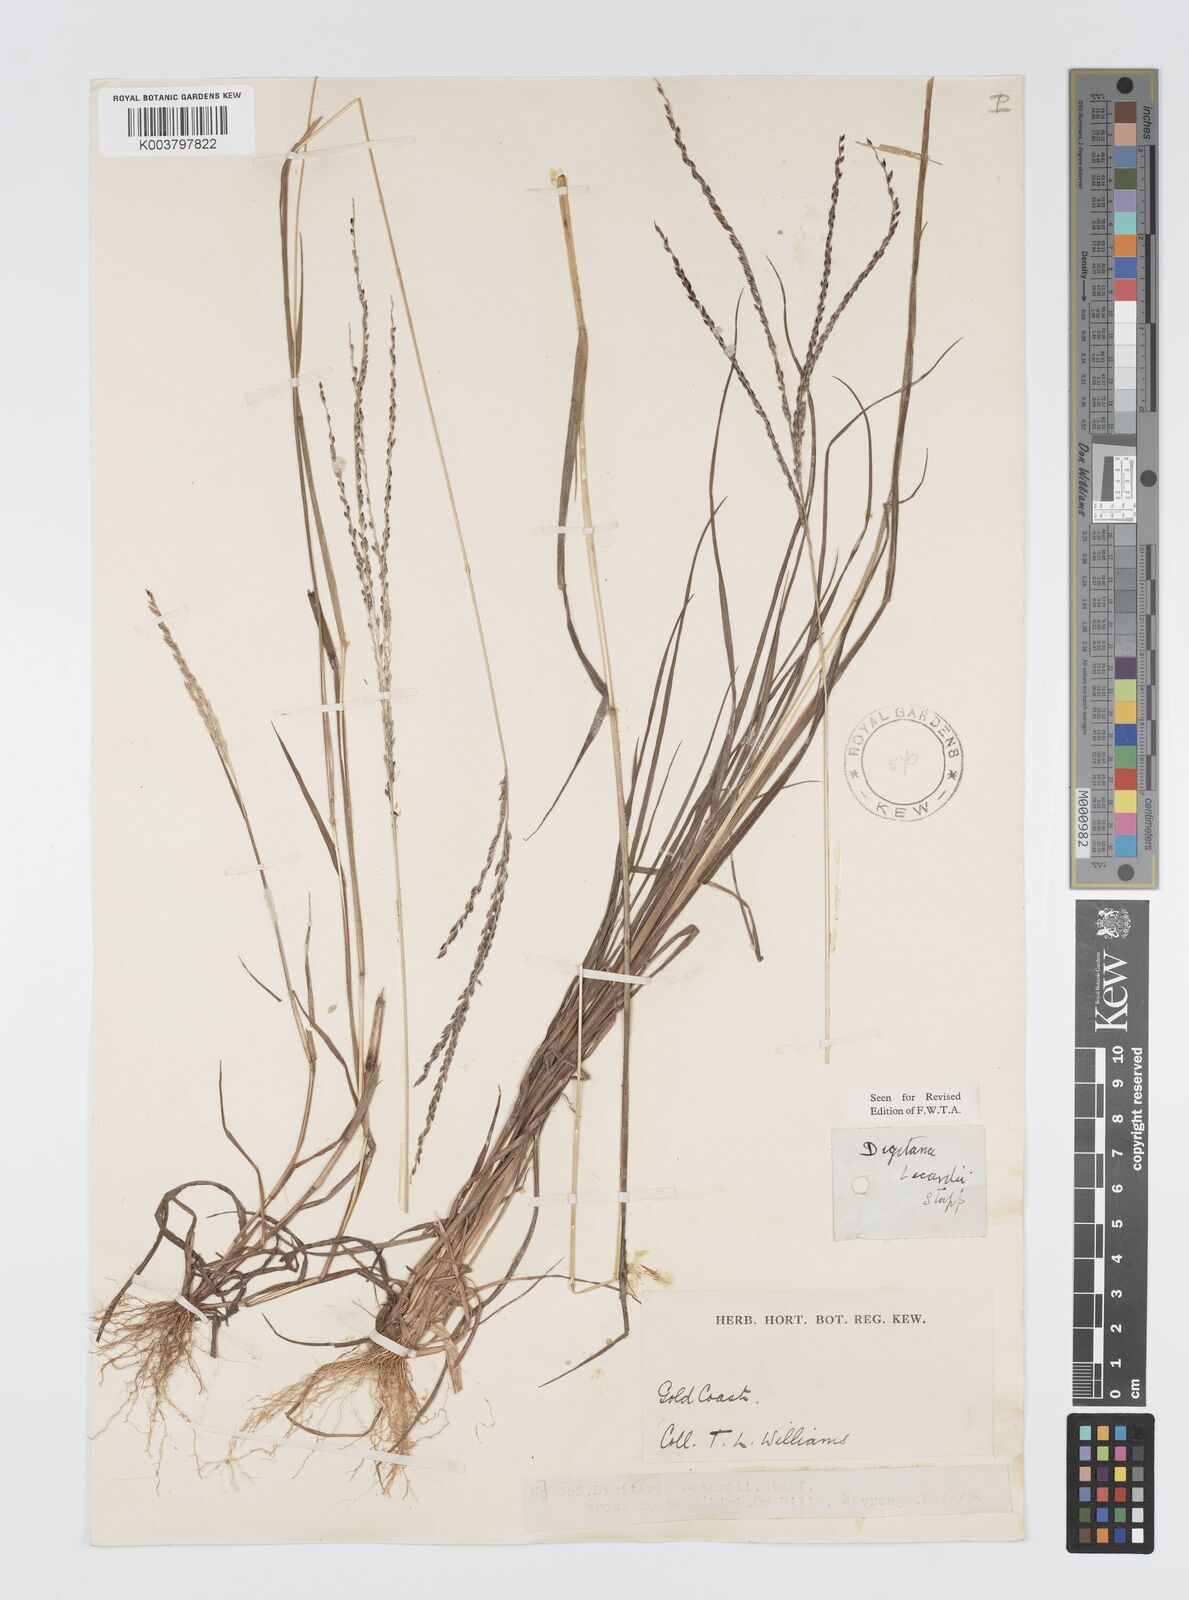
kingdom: Plantae
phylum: Tracheophyta
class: Liliopsida
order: Poales
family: Poaceae
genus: Digitaria
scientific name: Digitaria
